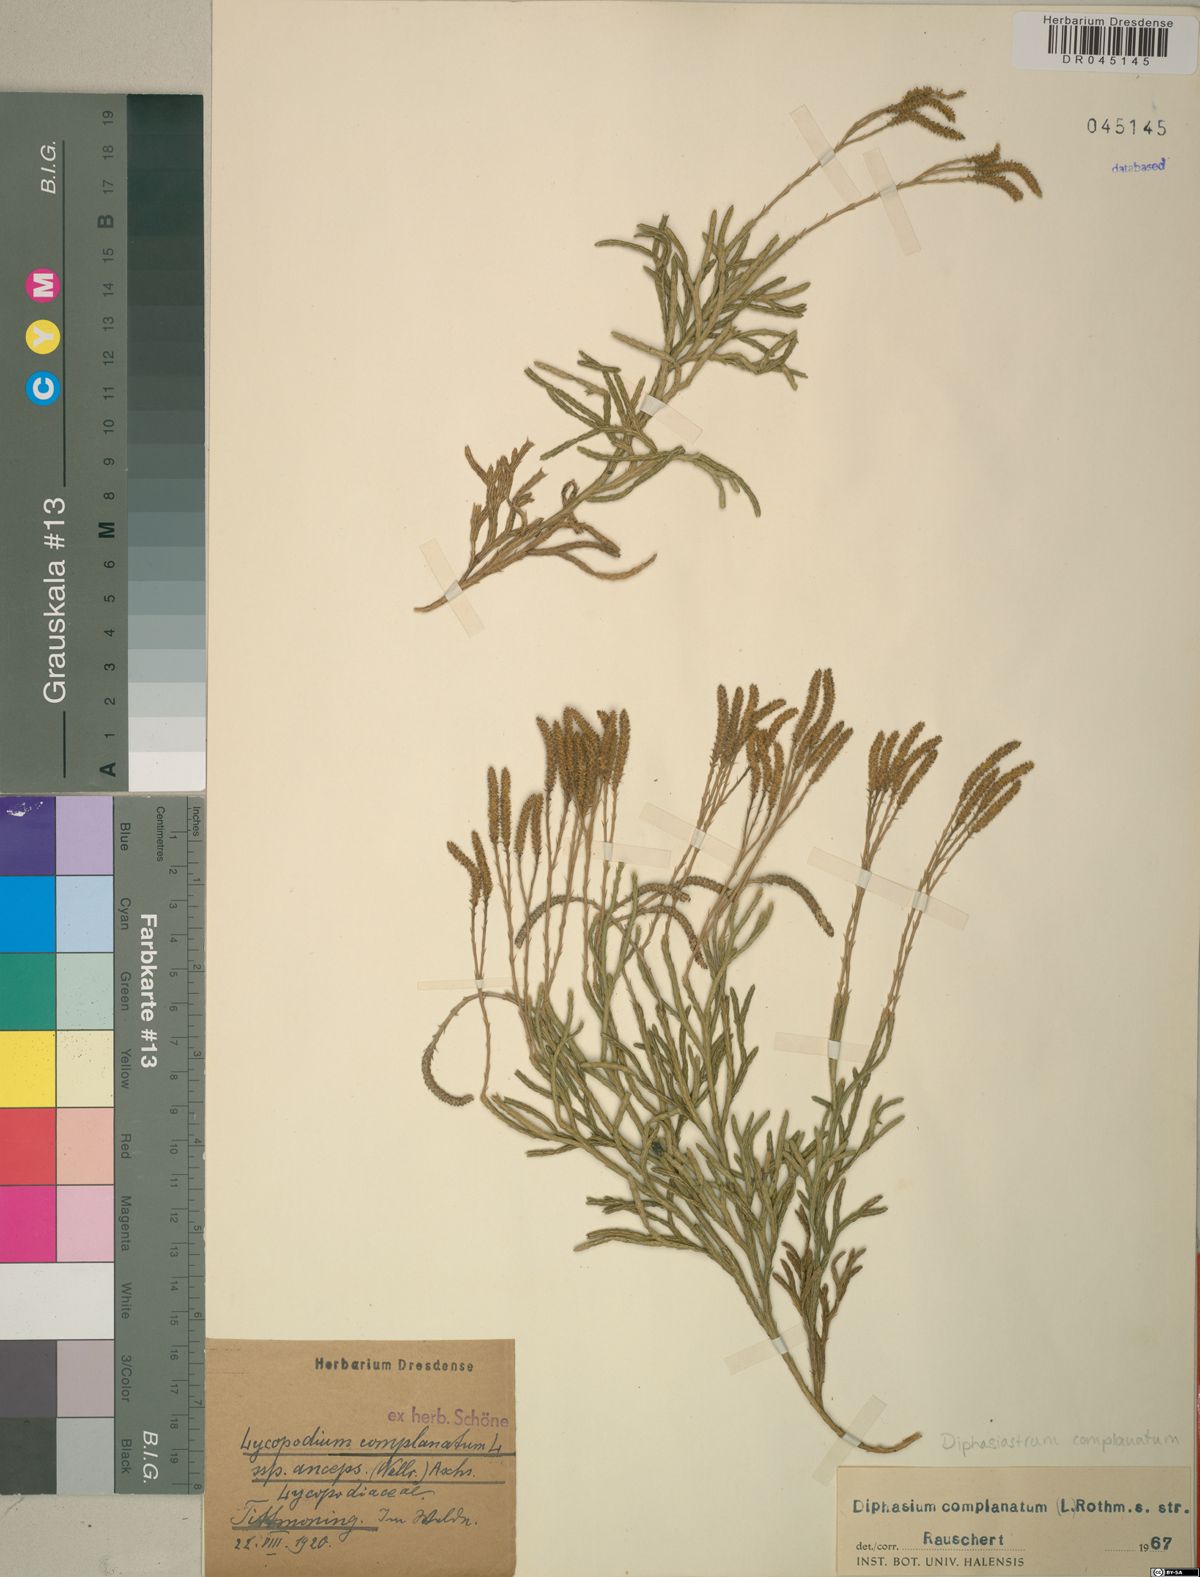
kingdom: Plantae
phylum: Tracheophyta
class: Lycopodiopsida
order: Lycopodiales
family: Lycopodiaceae
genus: Diphasiastrum
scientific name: Diphasiastrum complanatum
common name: Northern running-pine
